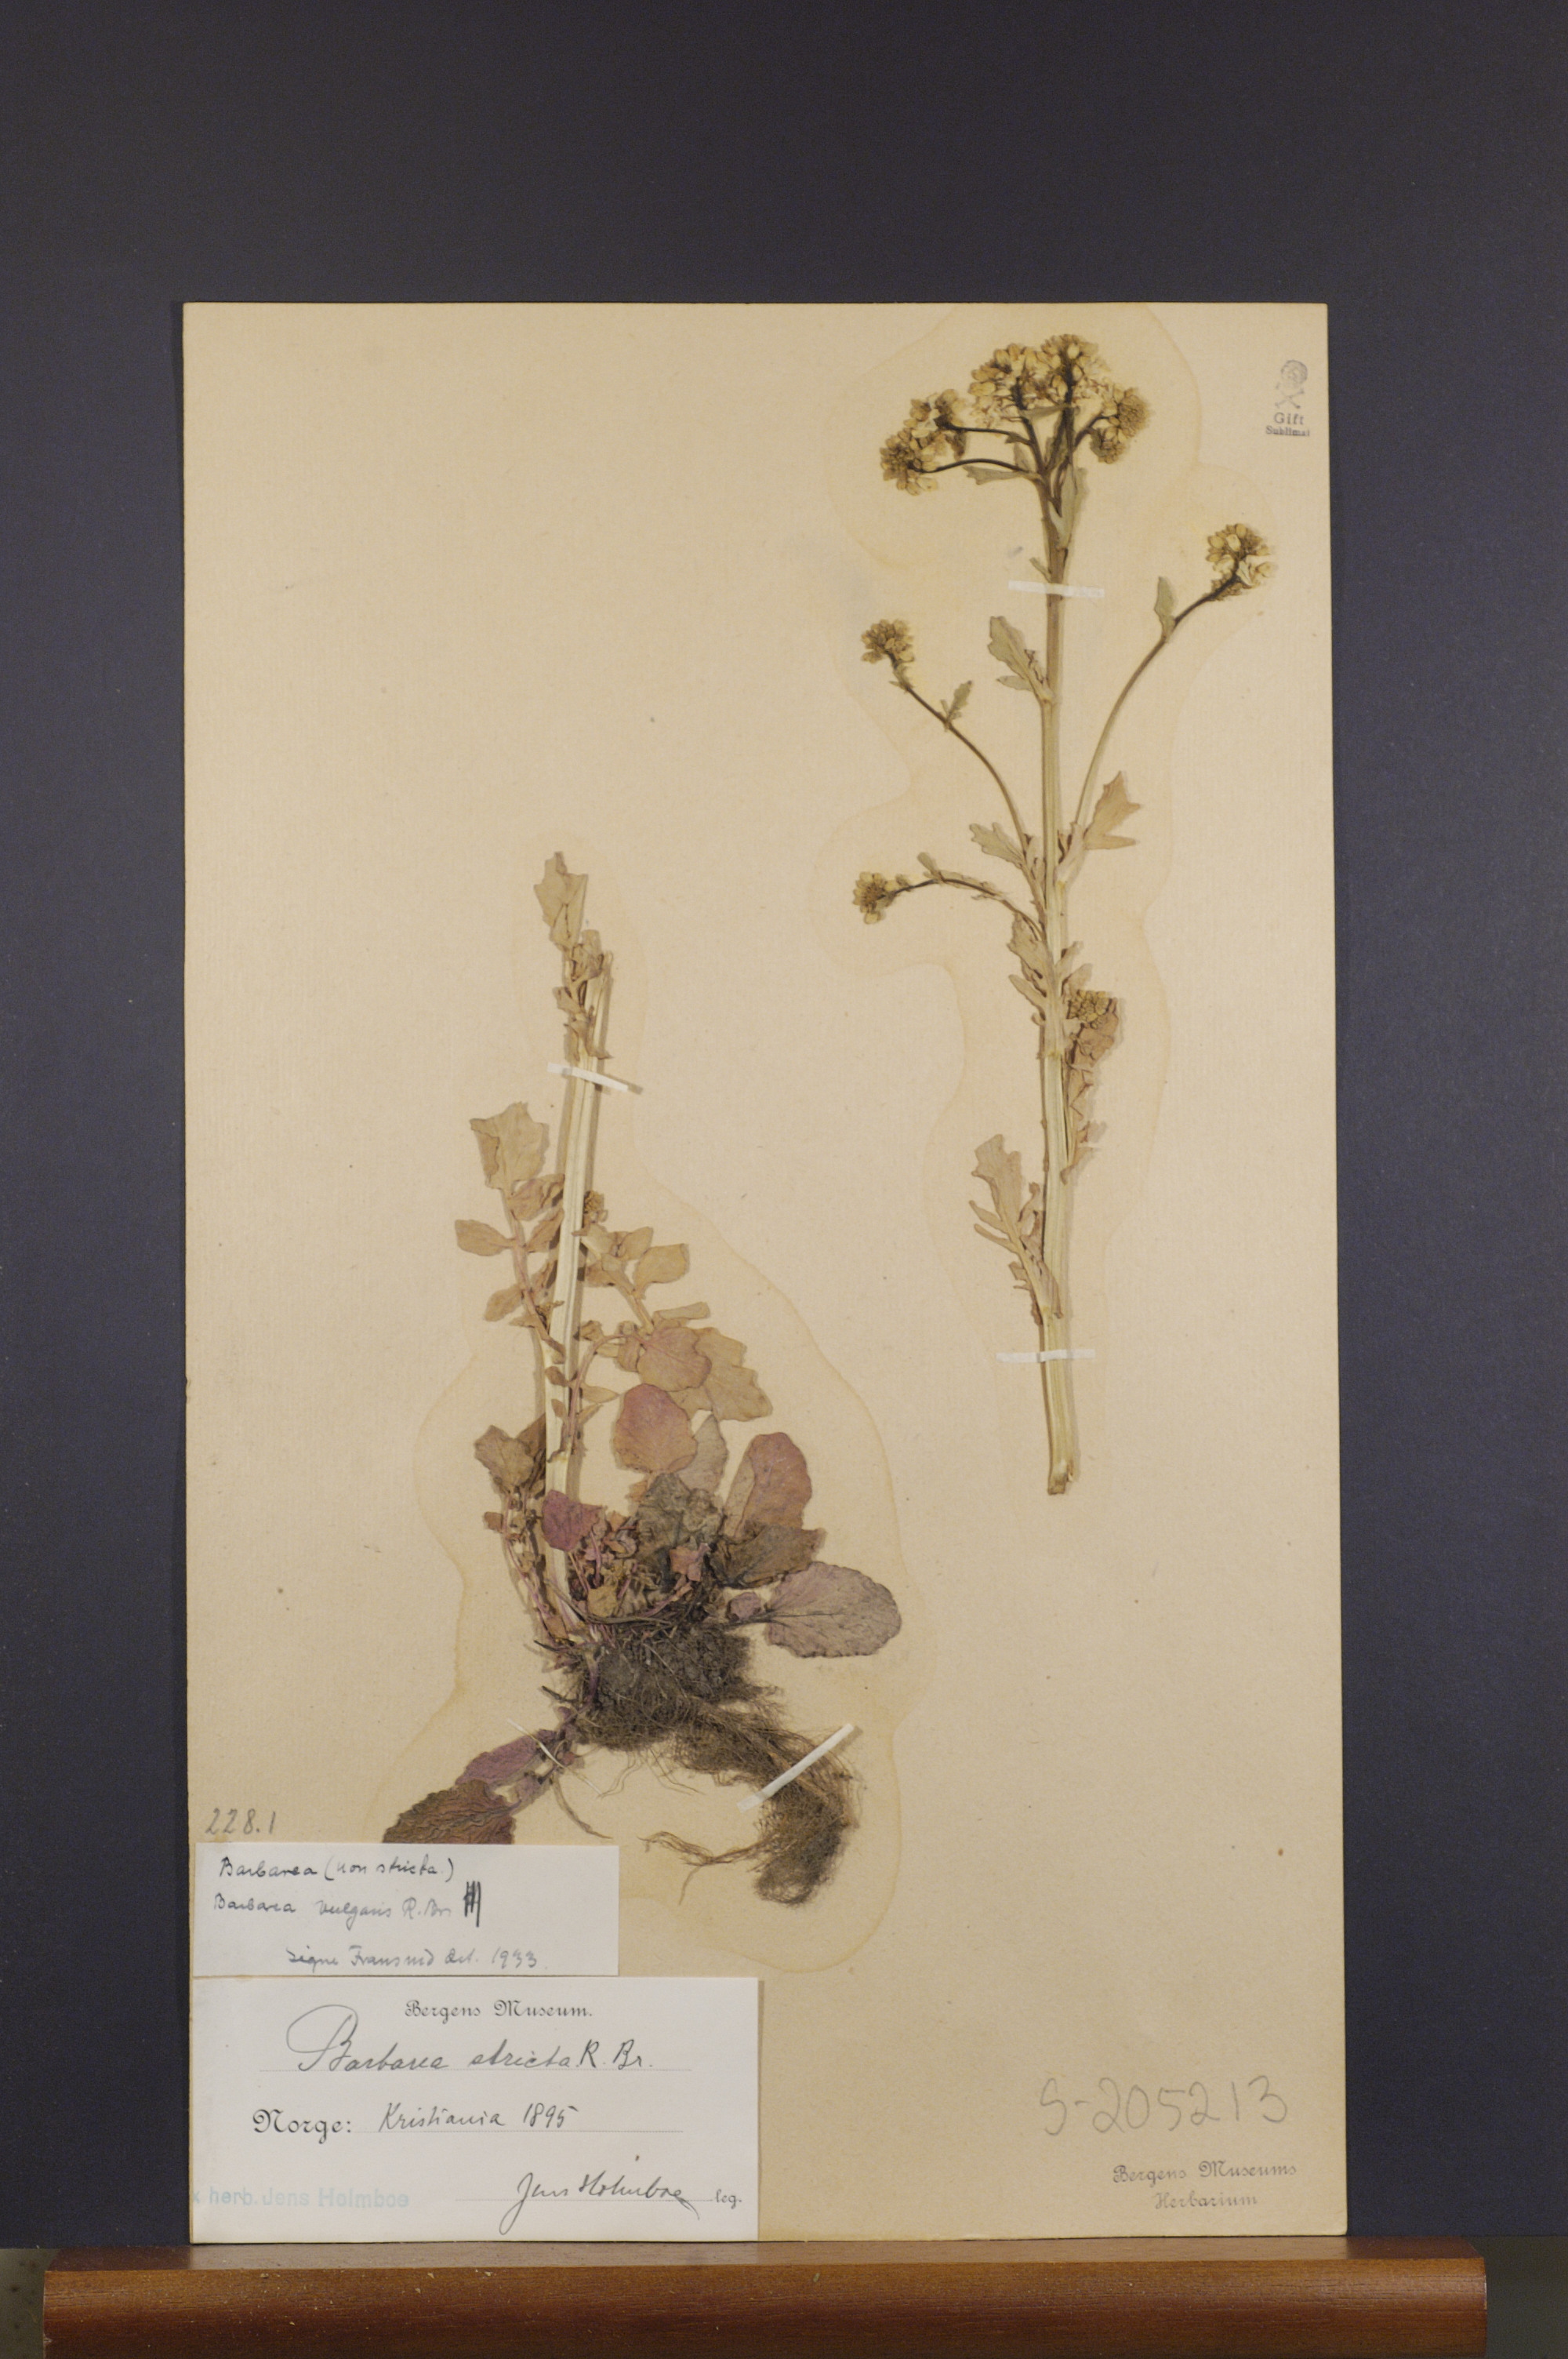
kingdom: Plantae
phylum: Tracheophyta
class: Magnoliopsida
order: Brassicales
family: Brassicaceae
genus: Barbarea
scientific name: Barbarea vulgaris
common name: Cressy-greens
